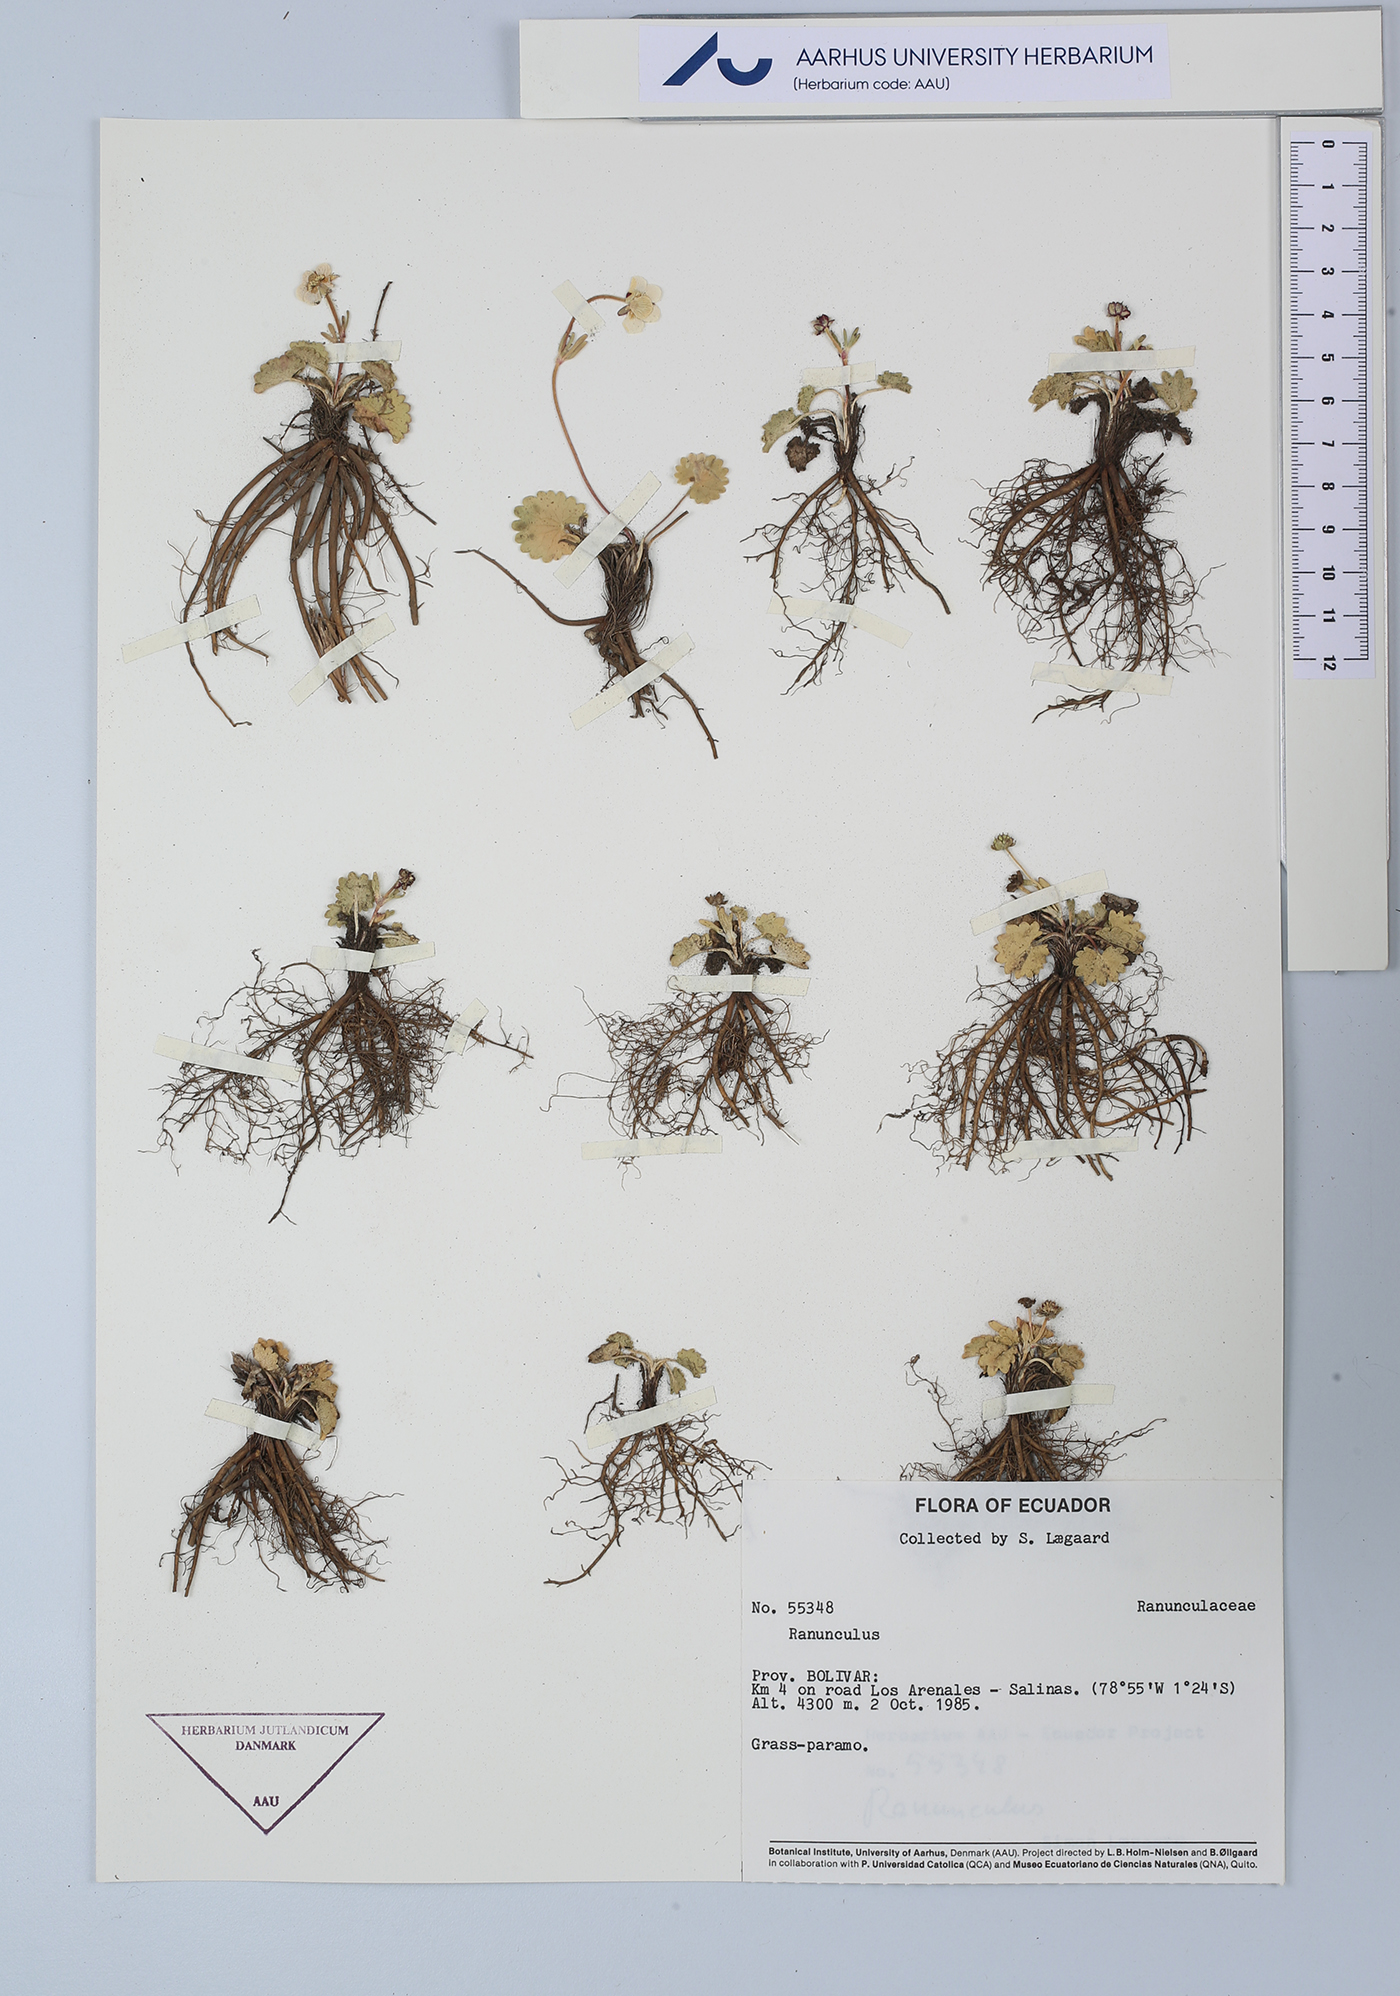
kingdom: Plantae
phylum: Tracheophyta
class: Magnoliopsida
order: Ranunculales
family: Ranunculaceae
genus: Ranunculus
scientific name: Ranunculus
